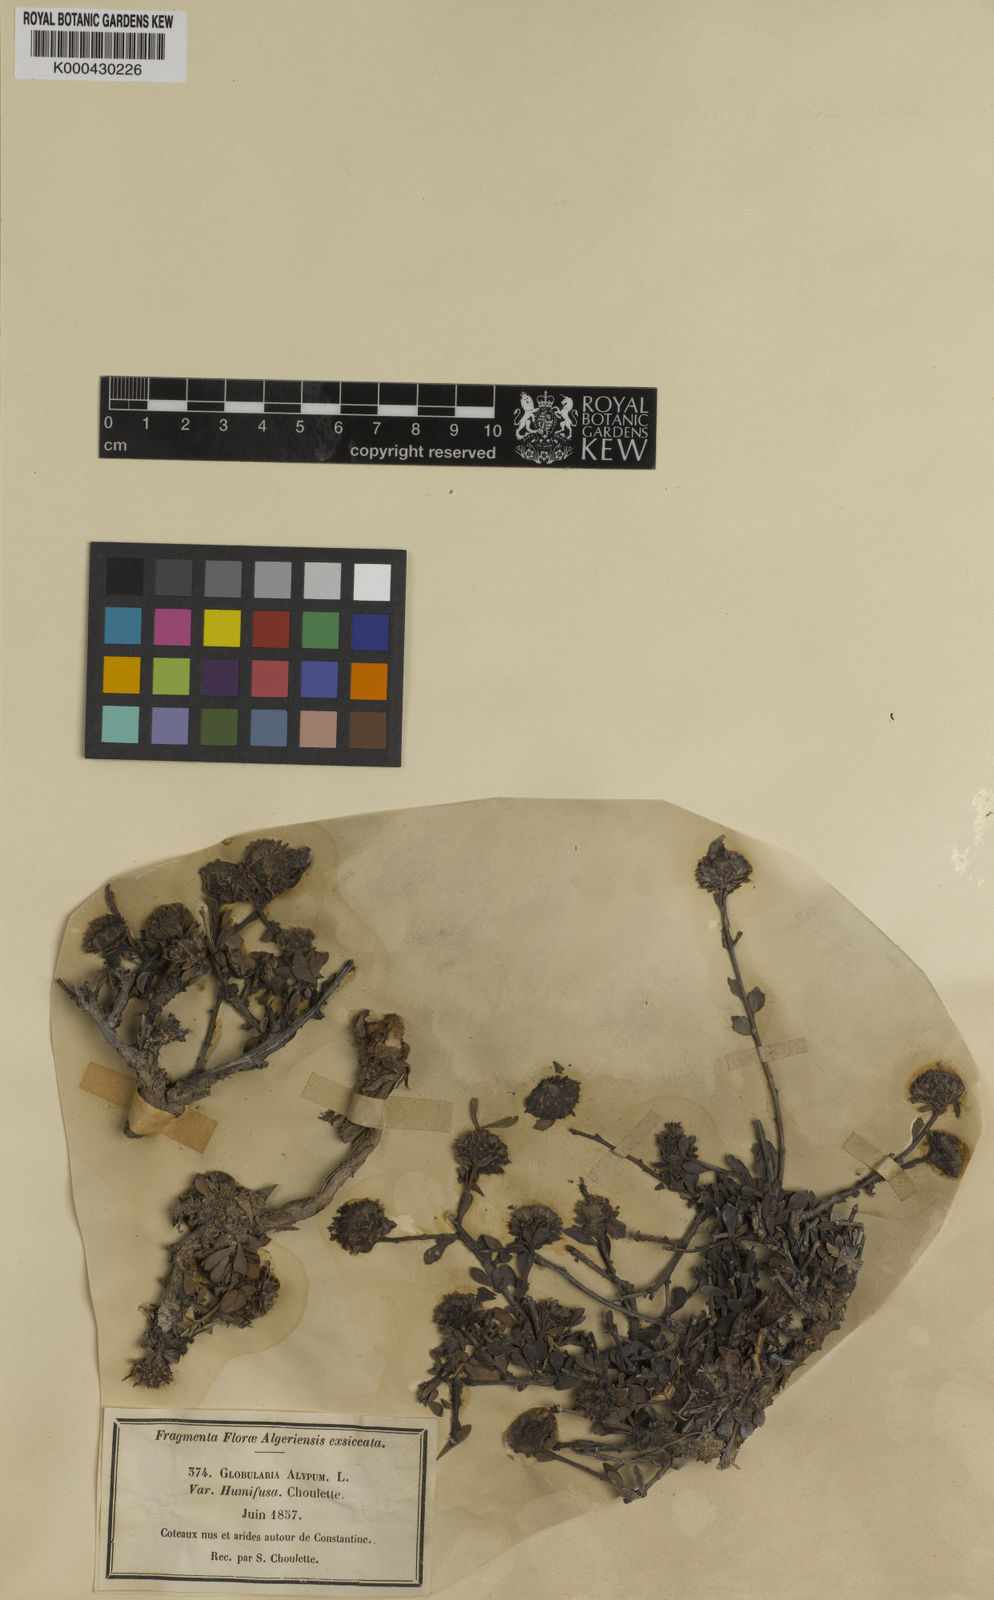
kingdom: Plantae
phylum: Tracheophyta
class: Magnoliopsida
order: Lamiales
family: Plantaginaceae
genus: Globularia
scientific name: Globularia alypum
